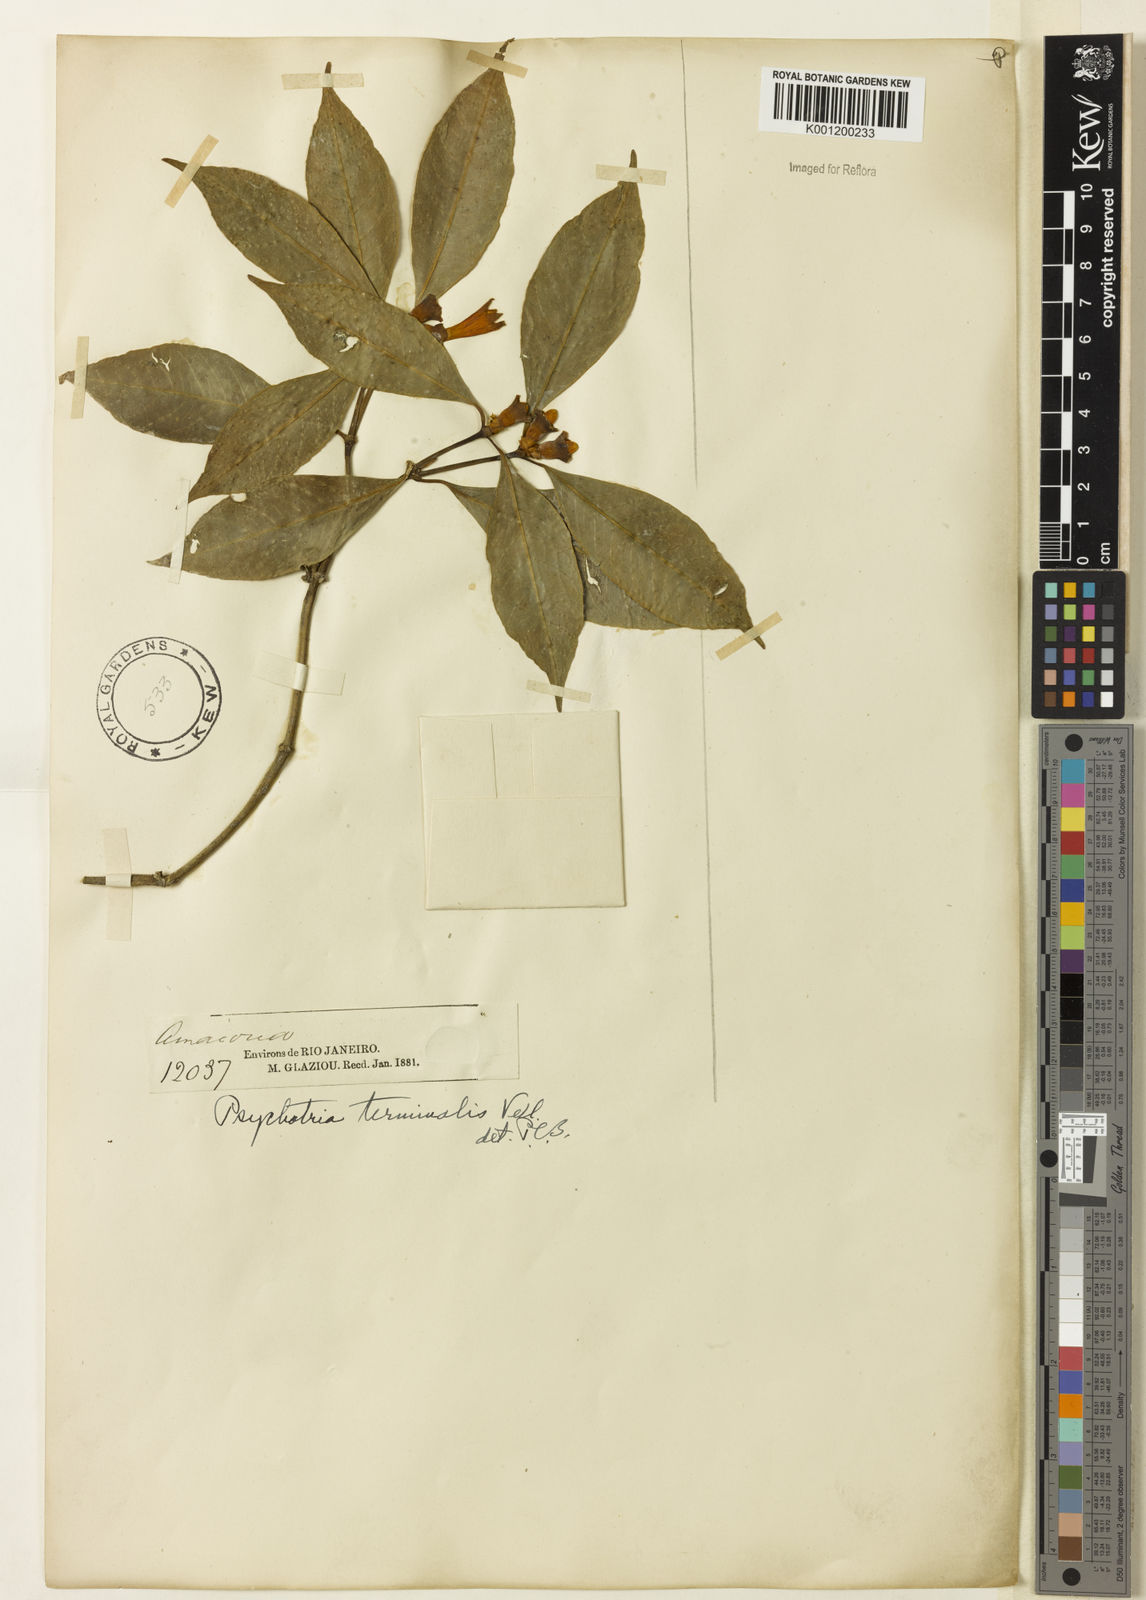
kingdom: Plantae
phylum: Tracheophyta
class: Magnoliopsida
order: Gentianales
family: Rubiaceae
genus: Psychotria
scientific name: Psychotria nuda
